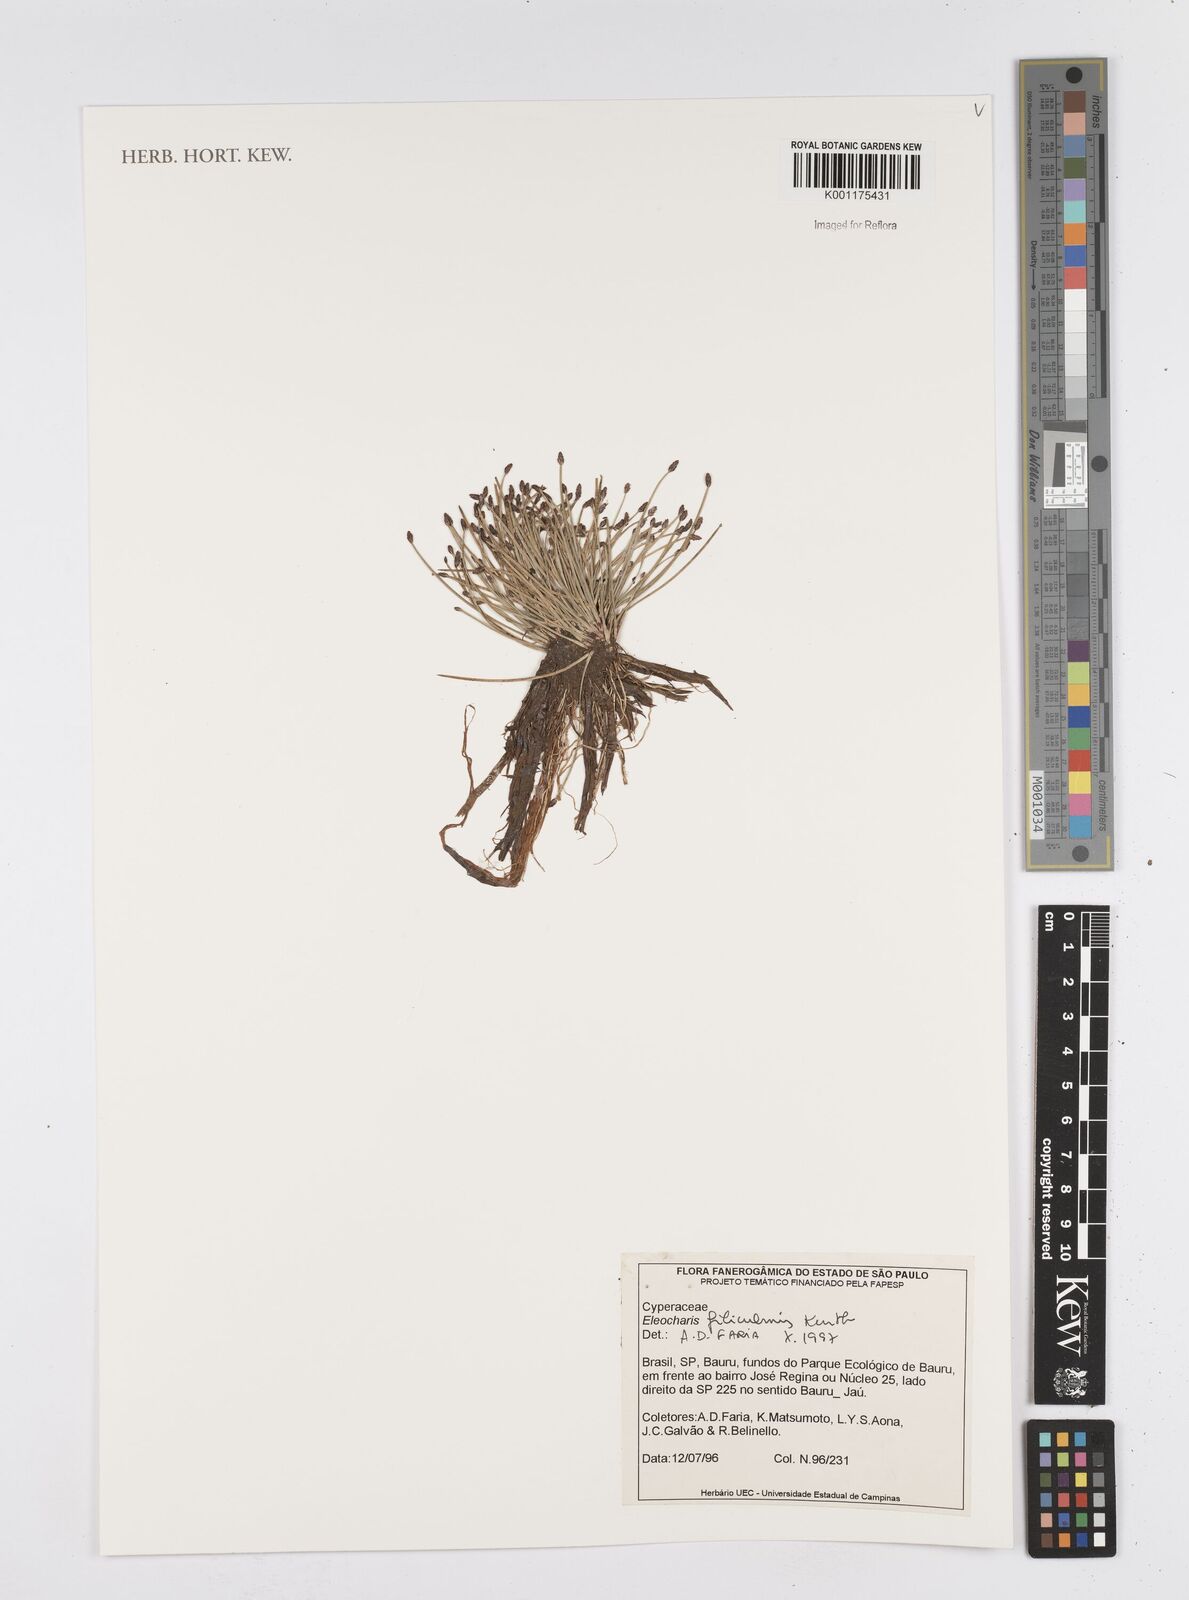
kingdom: Plantae
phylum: Tracheophyta
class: Liliopsida
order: Poales
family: Cyperaceae
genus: Eleocharis
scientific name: Eleocharis filiculmis
